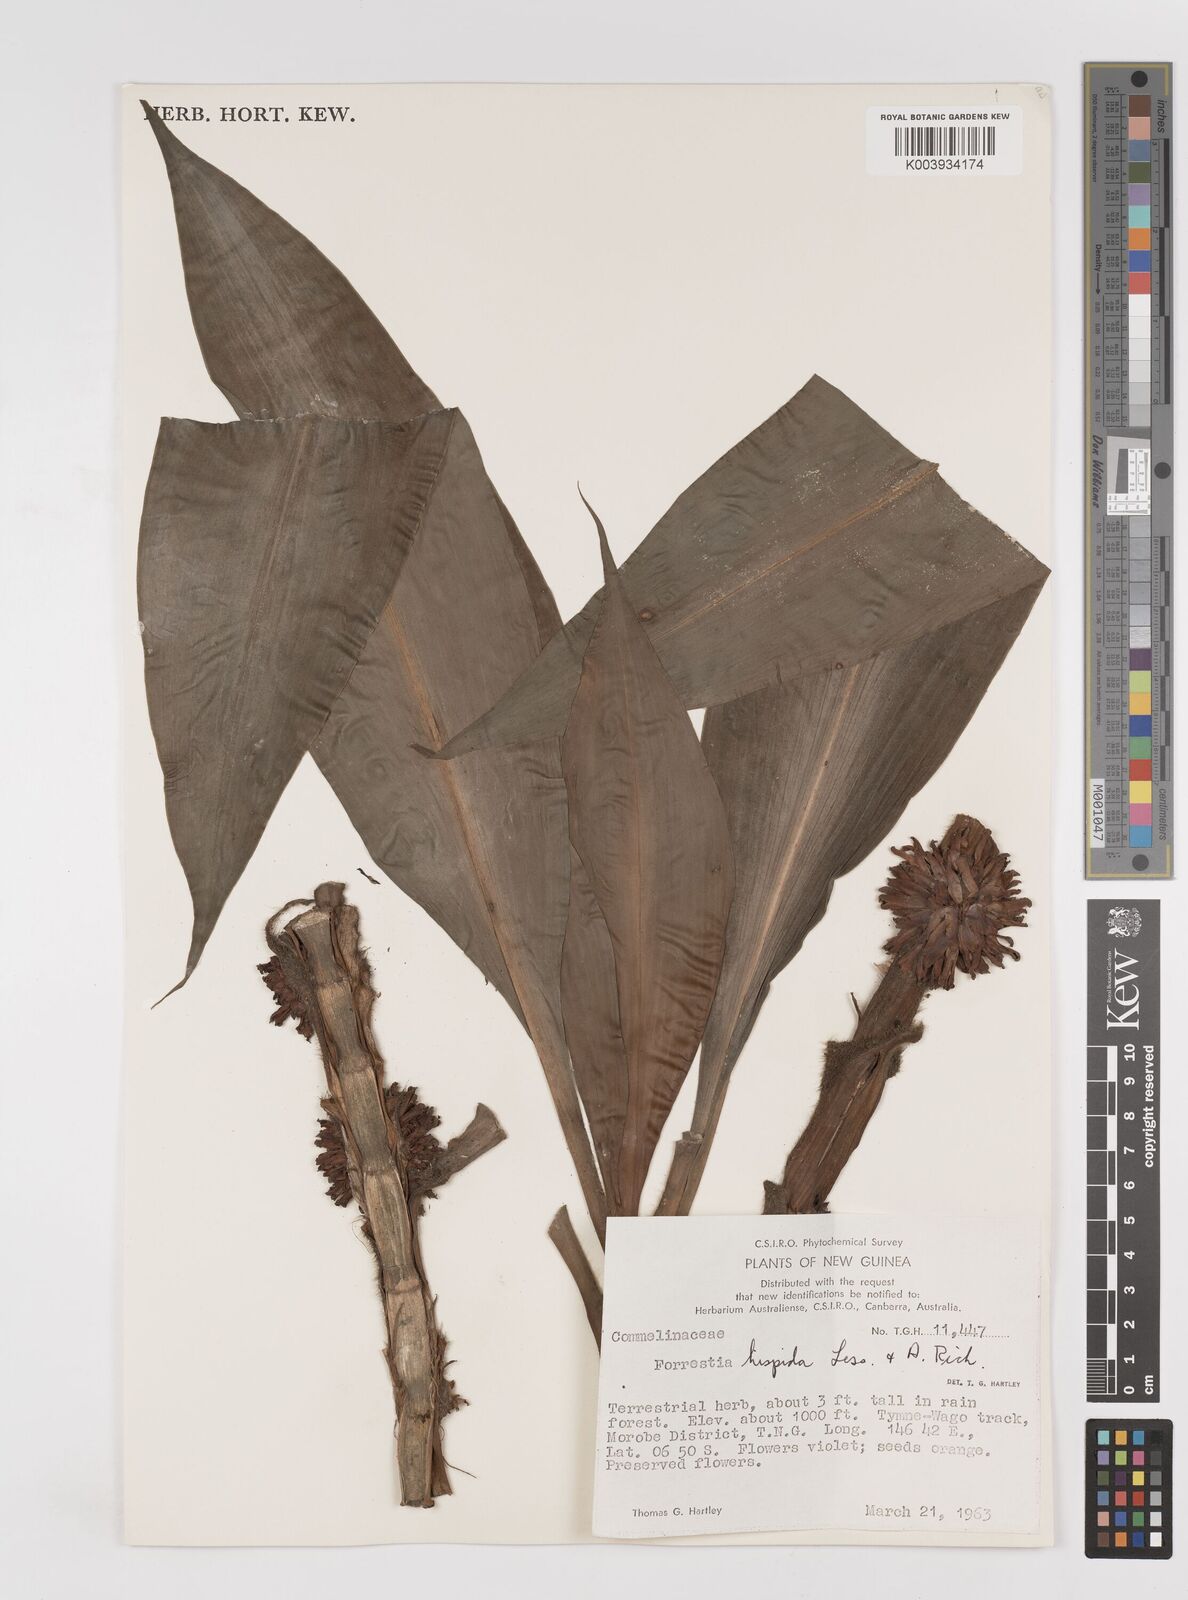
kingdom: Plantae
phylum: Tracheophyta
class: Liliopsida
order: Commelinales
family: Commelinaceae
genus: Amischotolype
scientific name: Amischotolype hispida
